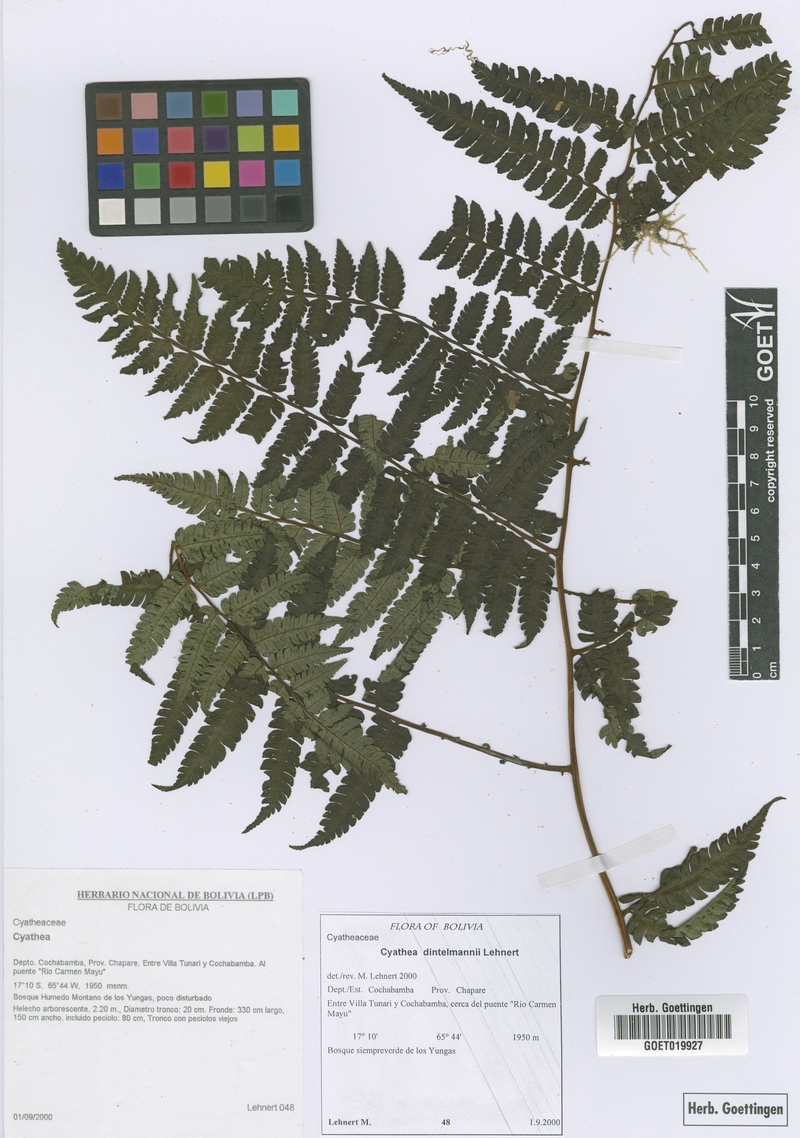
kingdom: Plantae
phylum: Tracheophyta
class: Polypodiopsida
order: Cyatheales
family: Cyatheaceae
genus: Cyathea
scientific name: Cyathea dintelmannii
